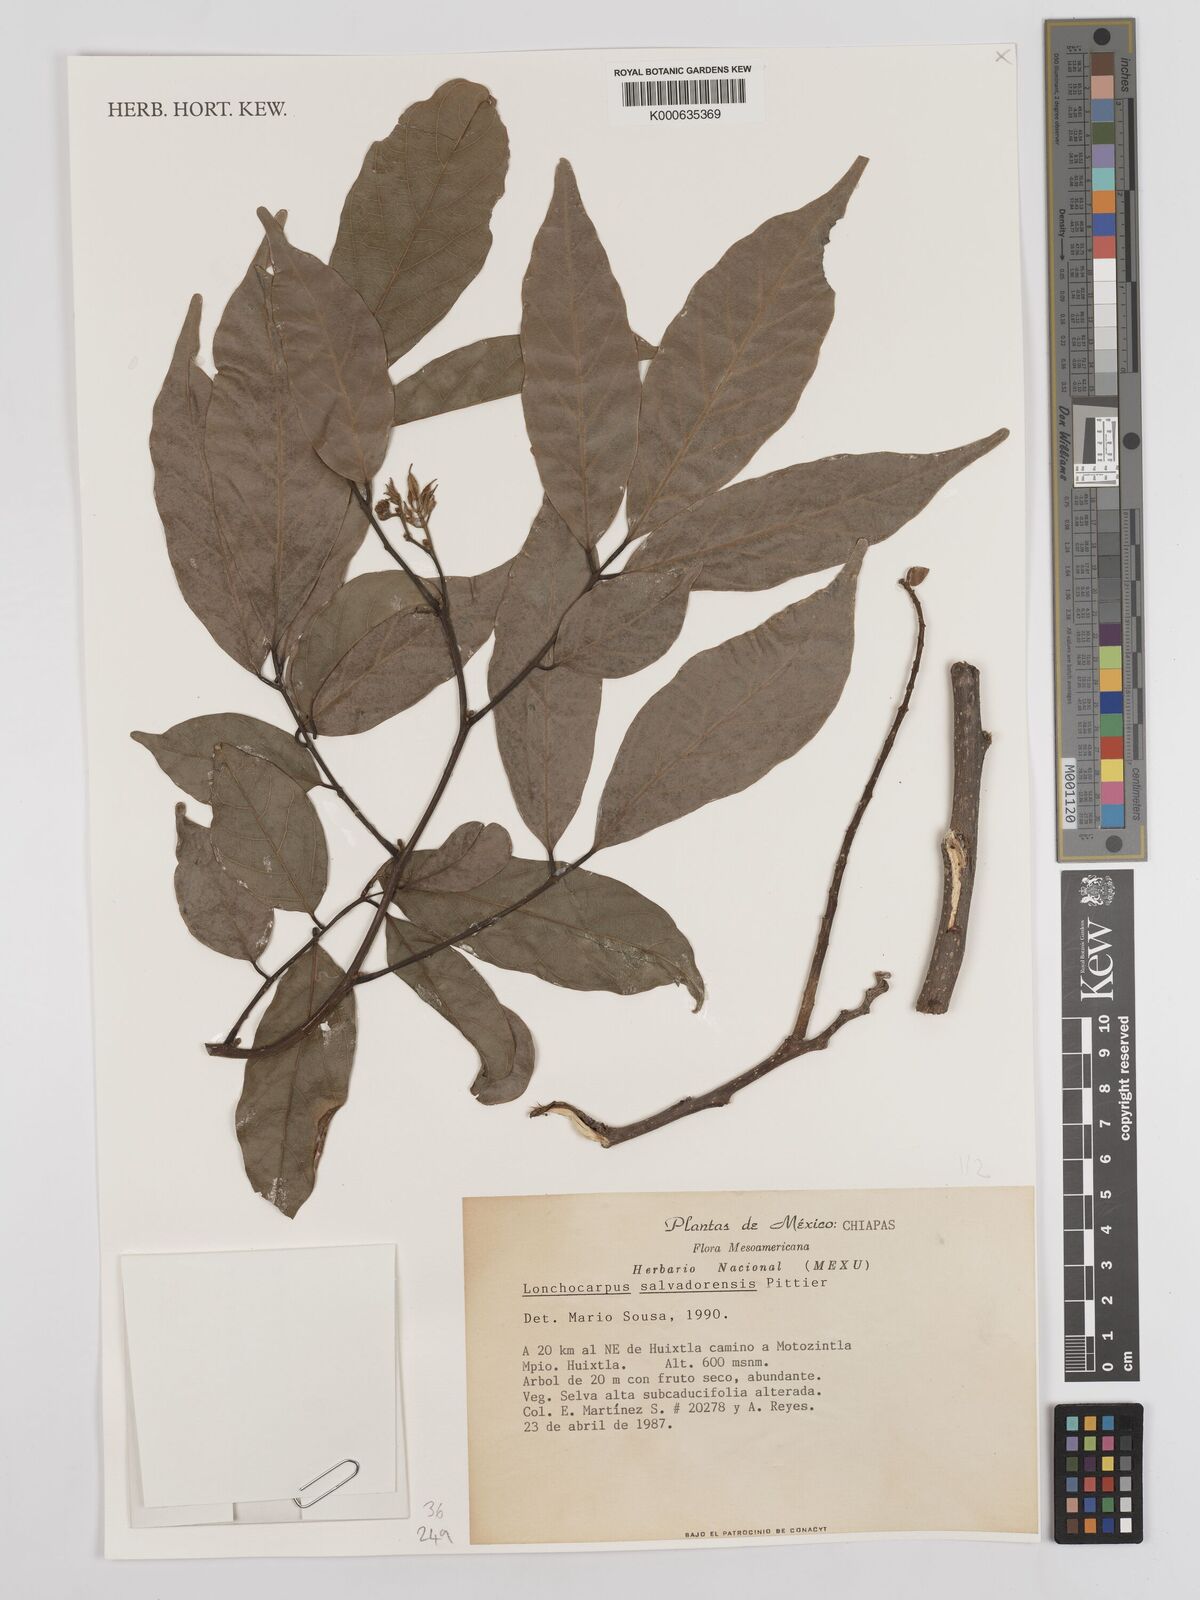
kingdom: Plantae
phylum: Tracheophyta
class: Magnoliopsida
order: Fabales
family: Fabaceae
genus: Lonchocarpus
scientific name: Lonchocarpus salvadorensis
